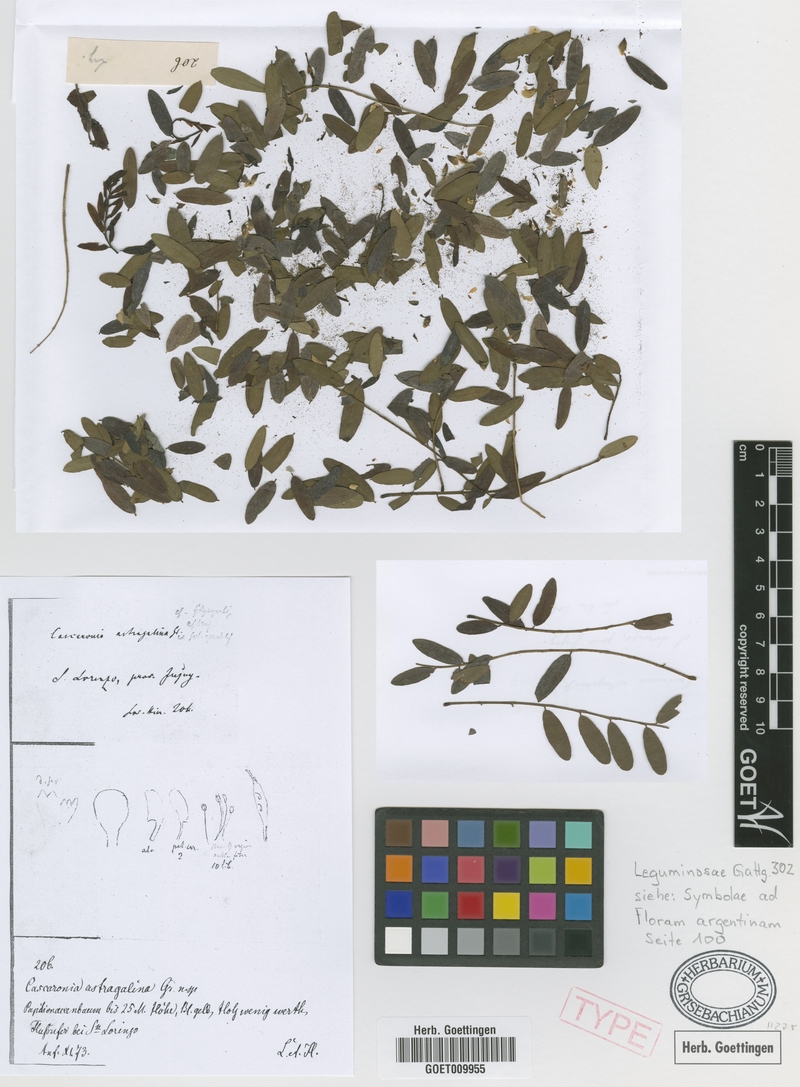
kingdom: Plantae
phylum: Tracheophyta
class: Magnoliopsida
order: Fabales
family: Fabaceae
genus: Cascaronia
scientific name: Cascaronia astragalina
